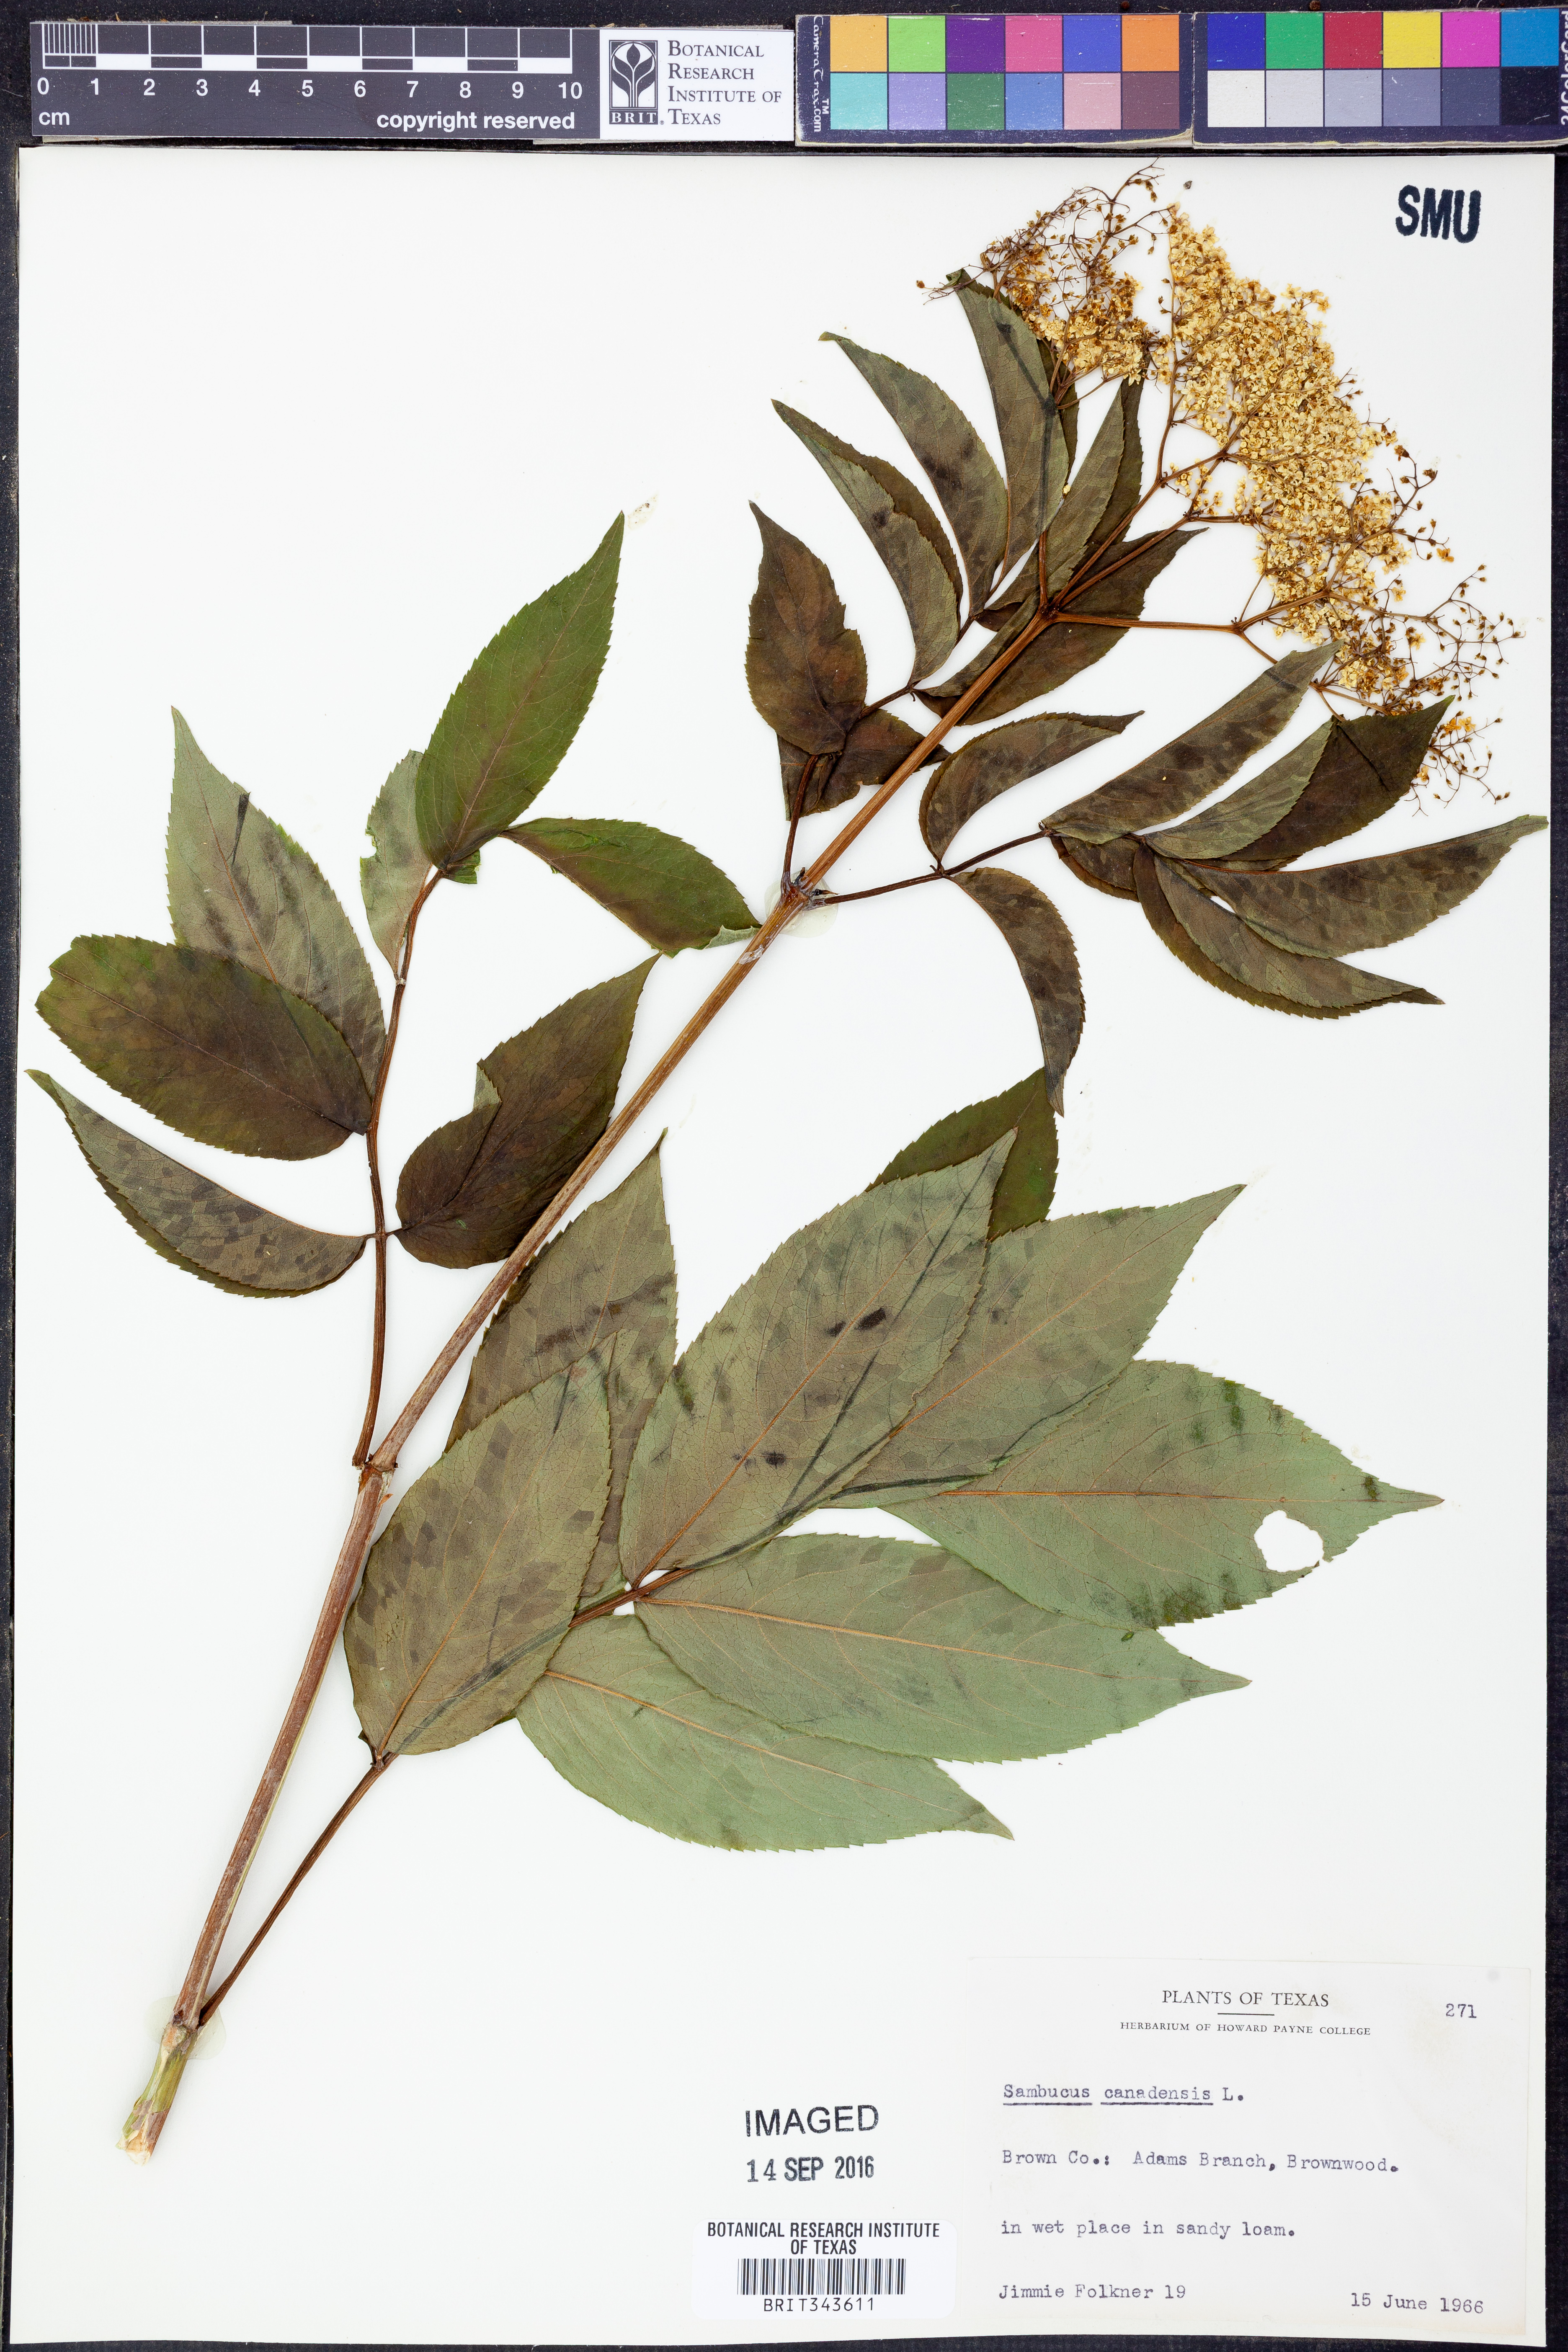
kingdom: Plantae
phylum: Tracheophyta
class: Magnoliopsida
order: Dipsacales
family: Viburnaceae
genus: Sambucus
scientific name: Sambucus canadensis
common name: American elder
